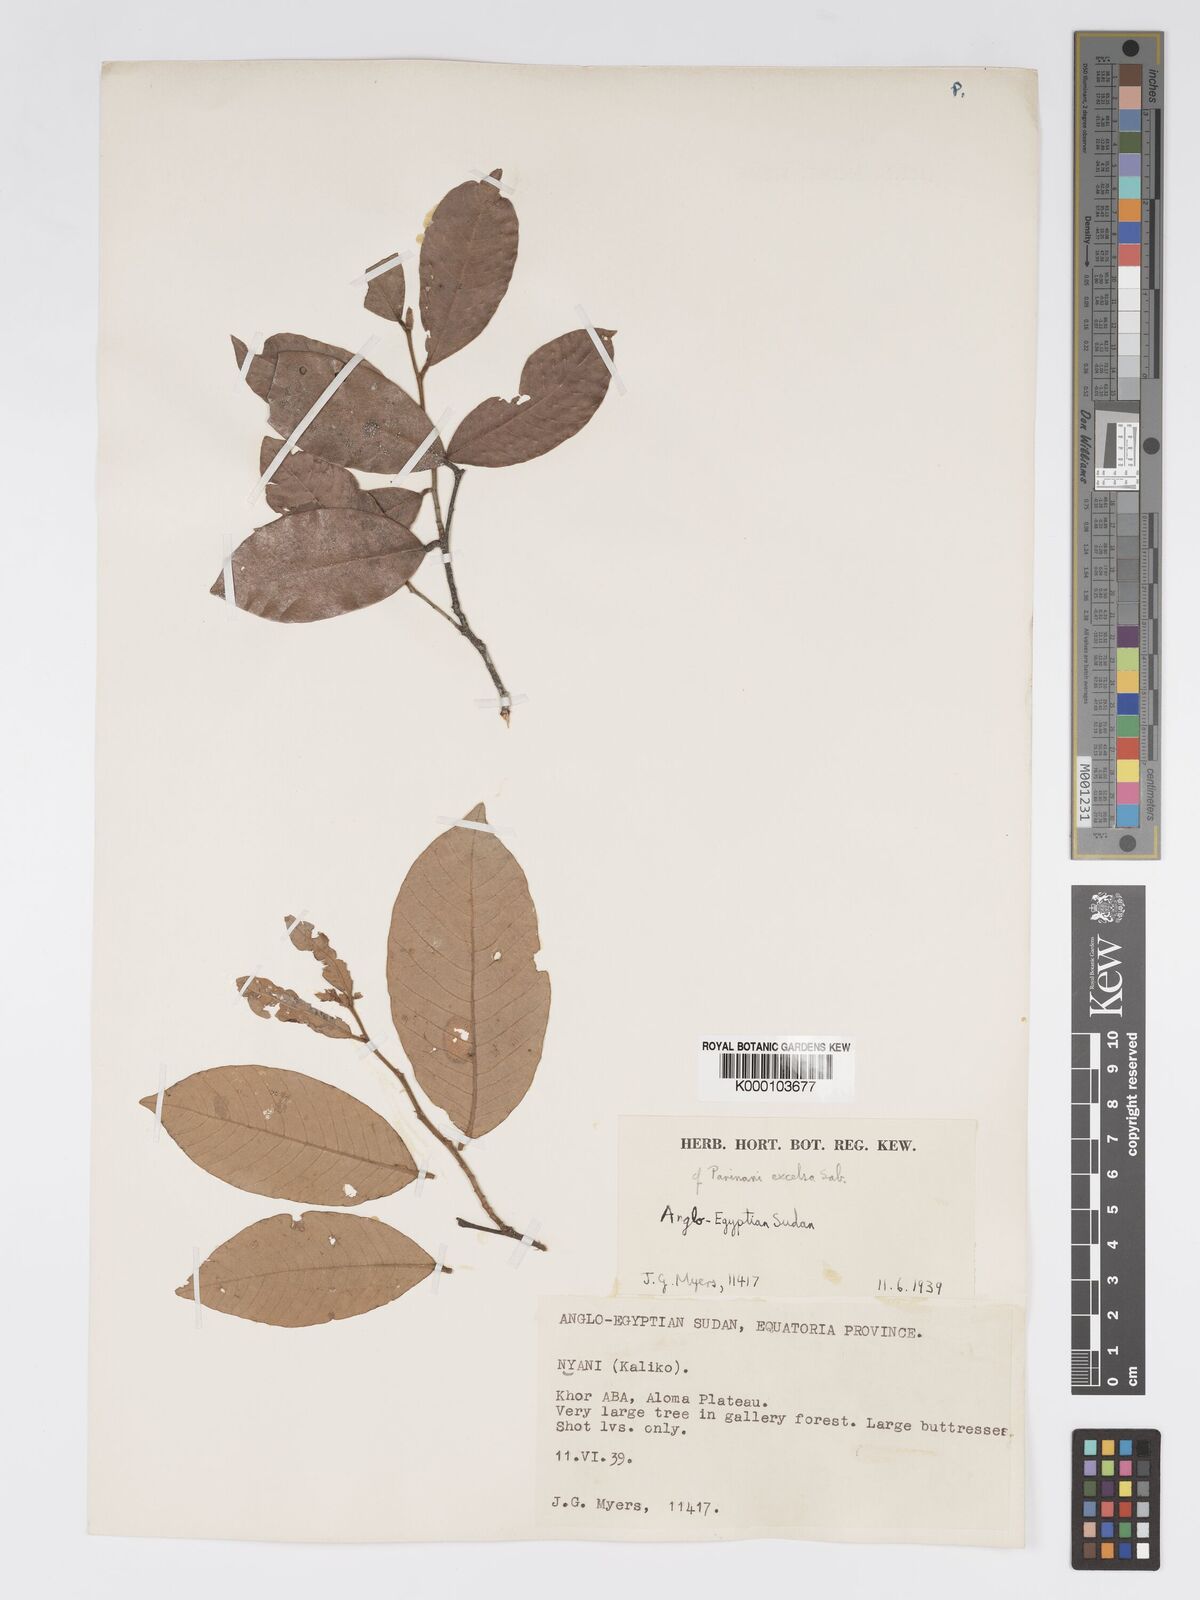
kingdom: Plantae
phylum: Tracheophyta
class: Magnoliopsida
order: Malpighiales
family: Chrysobalanaceae
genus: Parinari
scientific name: Parinari excelsa
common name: Guinea-plum
